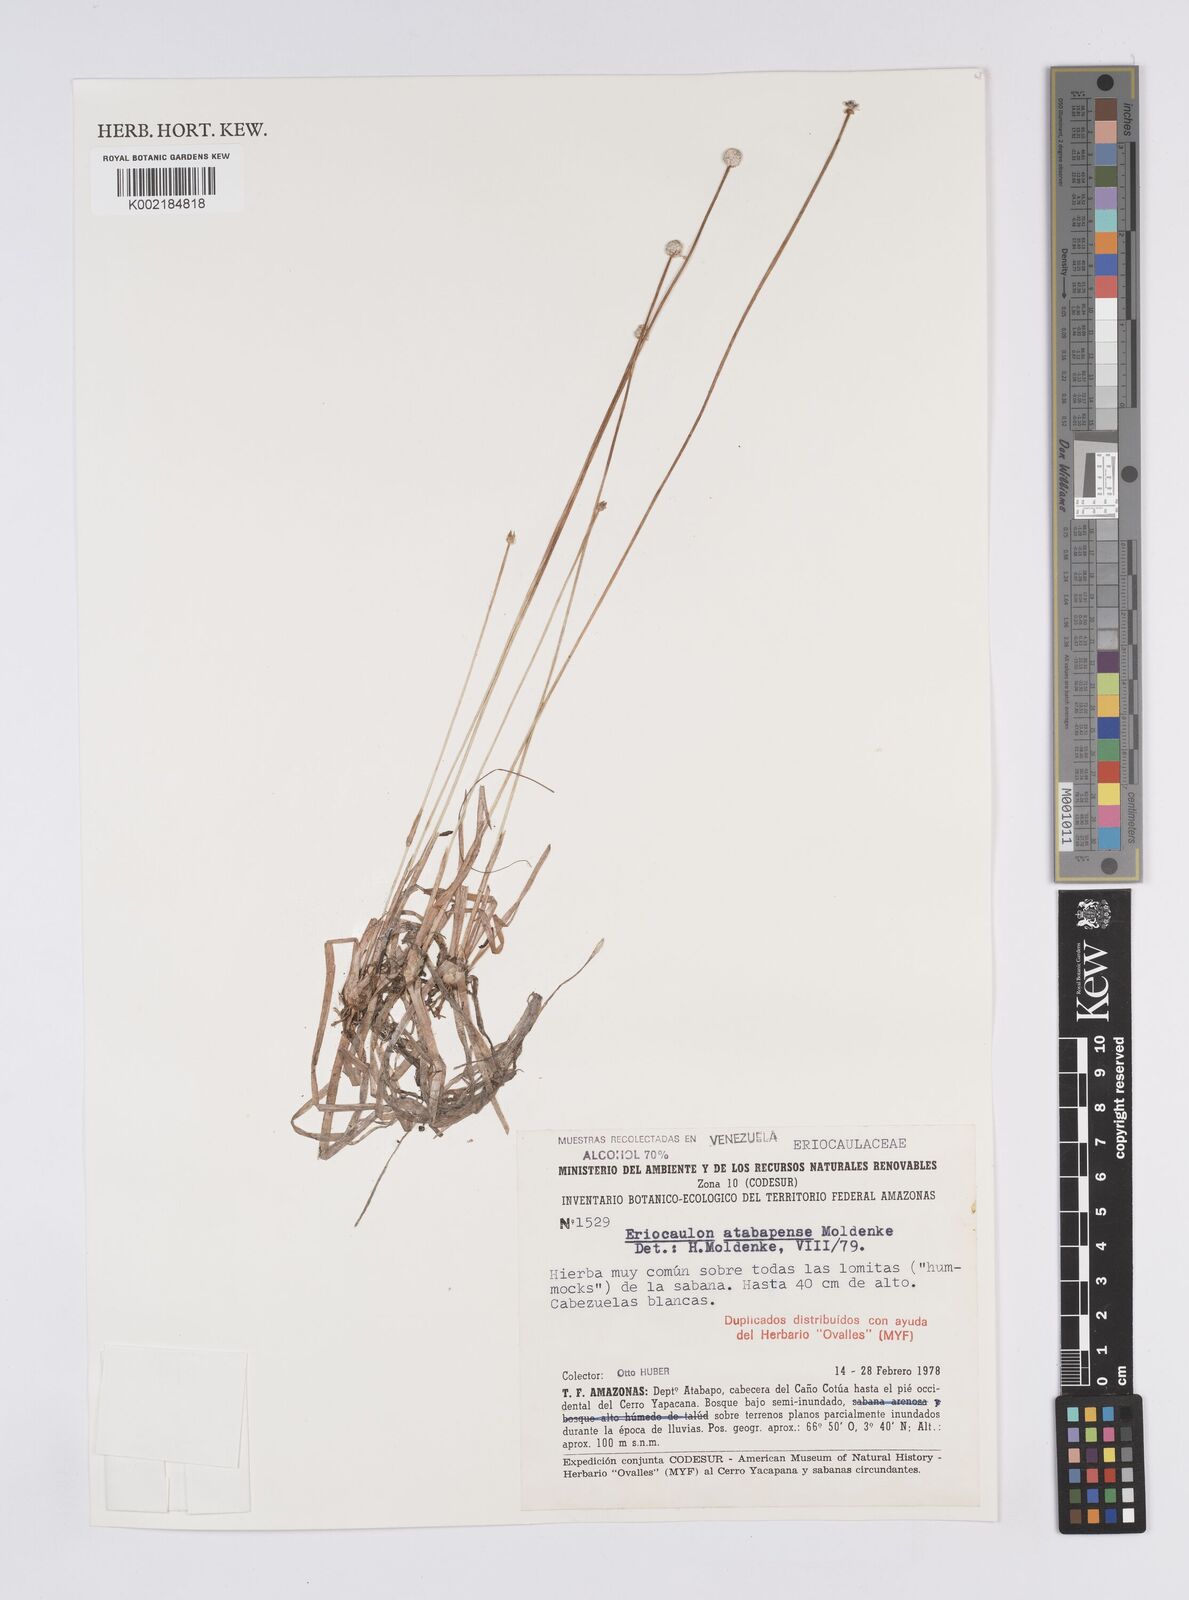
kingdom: Plantae
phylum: Tracheophyta
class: Liliopsida
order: Poales
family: Eriocaulaceae
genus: Eriocaulon
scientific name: Eriocaulon tenuifolium
